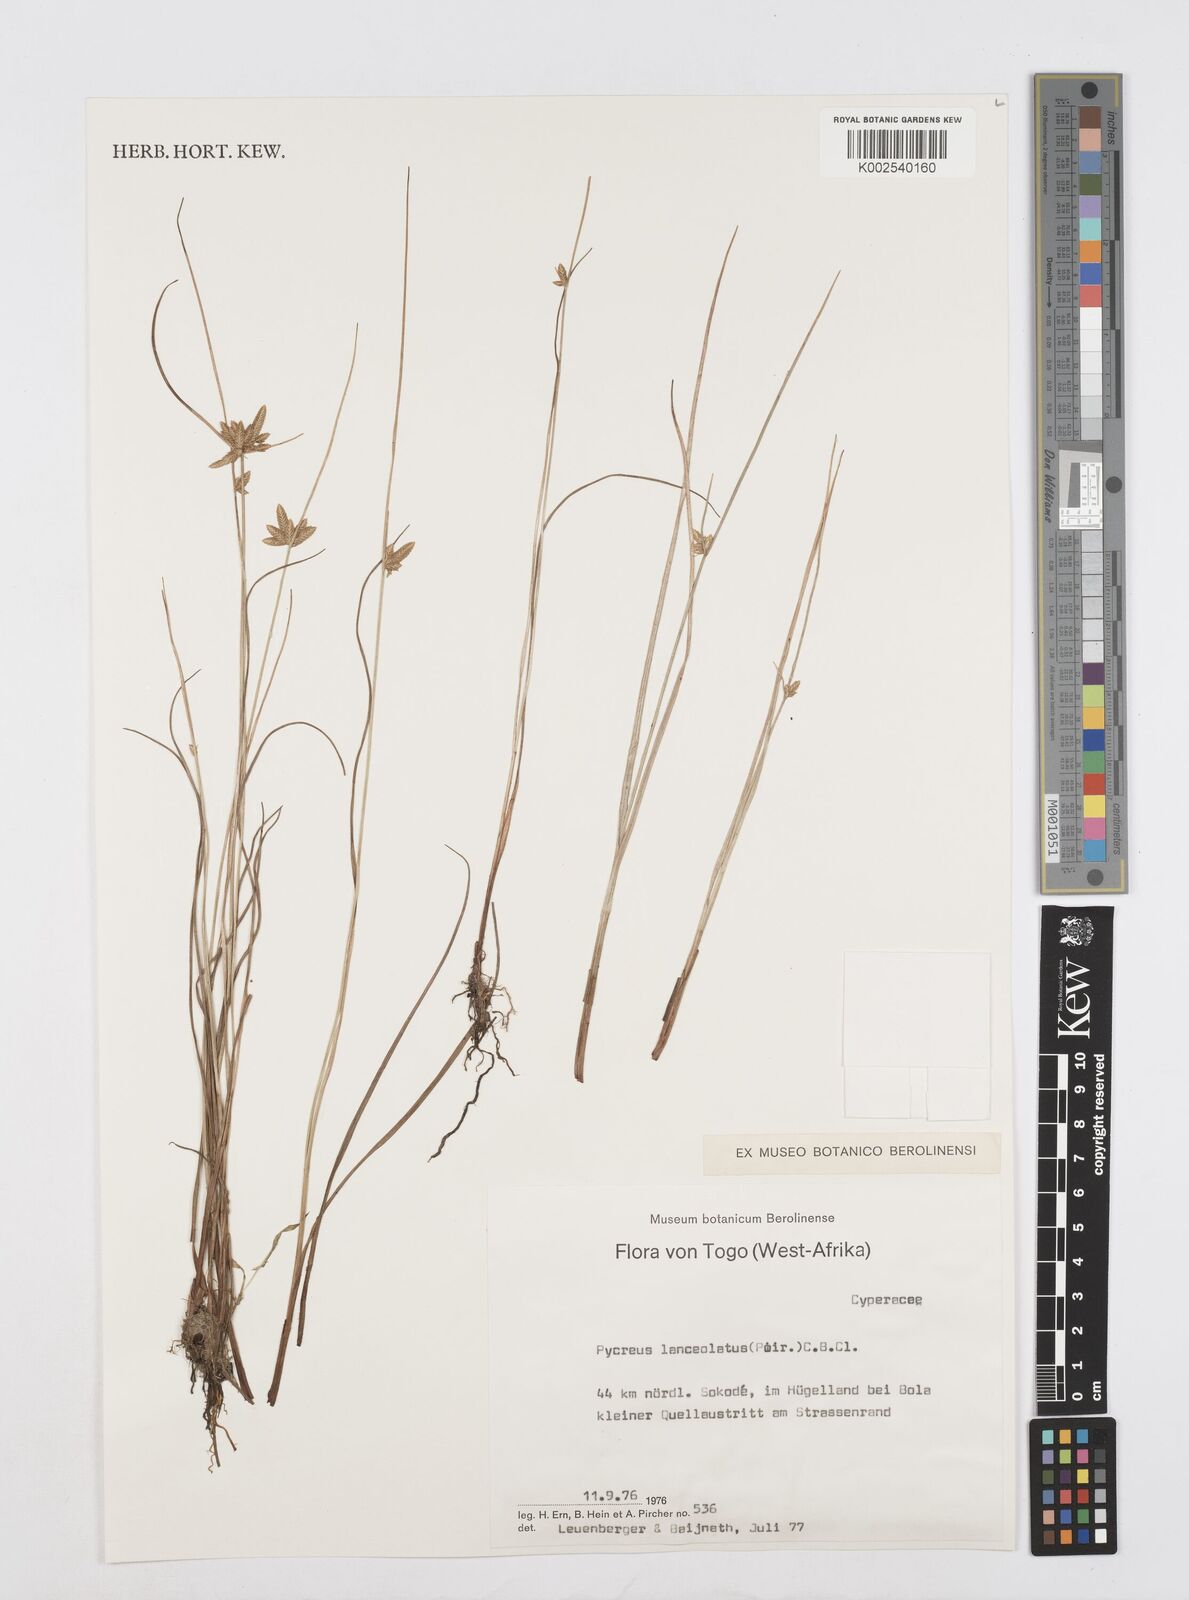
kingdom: Plantae
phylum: Tracheophyta
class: Liliopsida
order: Poales
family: Cyperaceae
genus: Cyperus
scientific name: Cyperus
